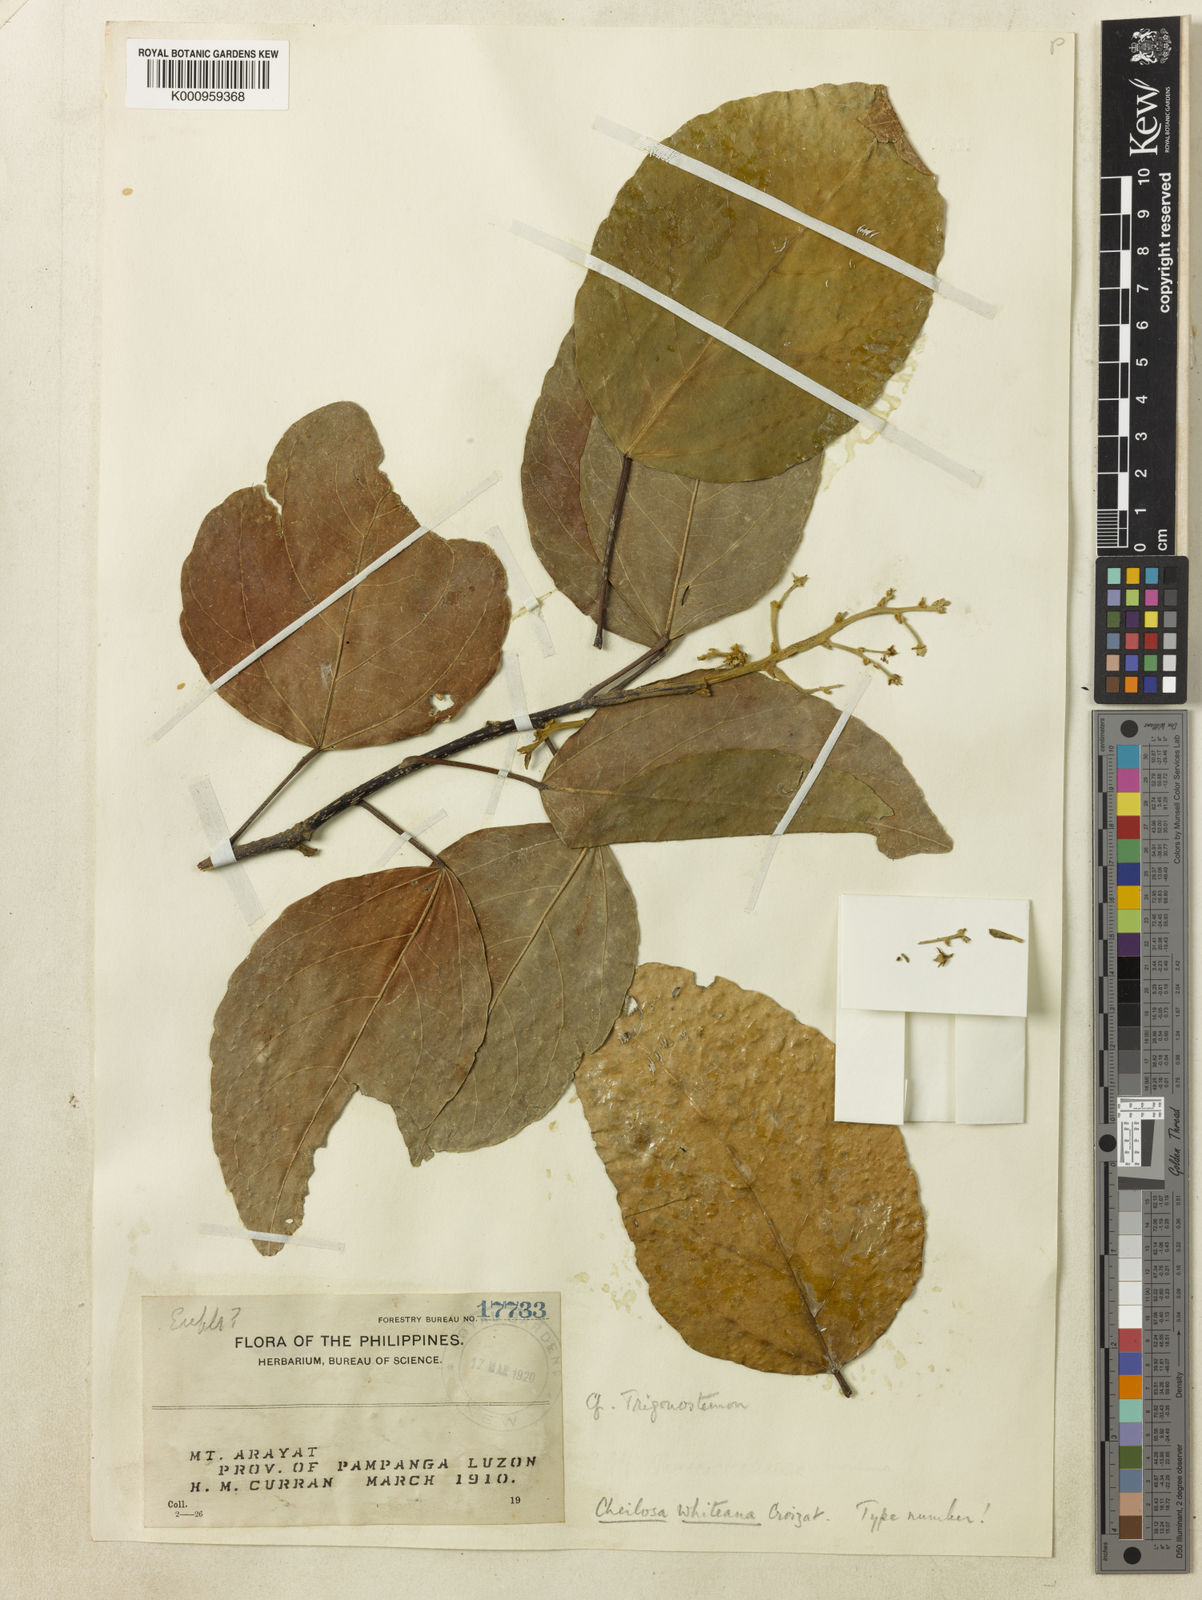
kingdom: Plantae
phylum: Tracheophyta
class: Magnoliopsida
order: Malpighiales
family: Euphorbiaceae
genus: Trigonostemon
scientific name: Trigonostemon whiteanus
